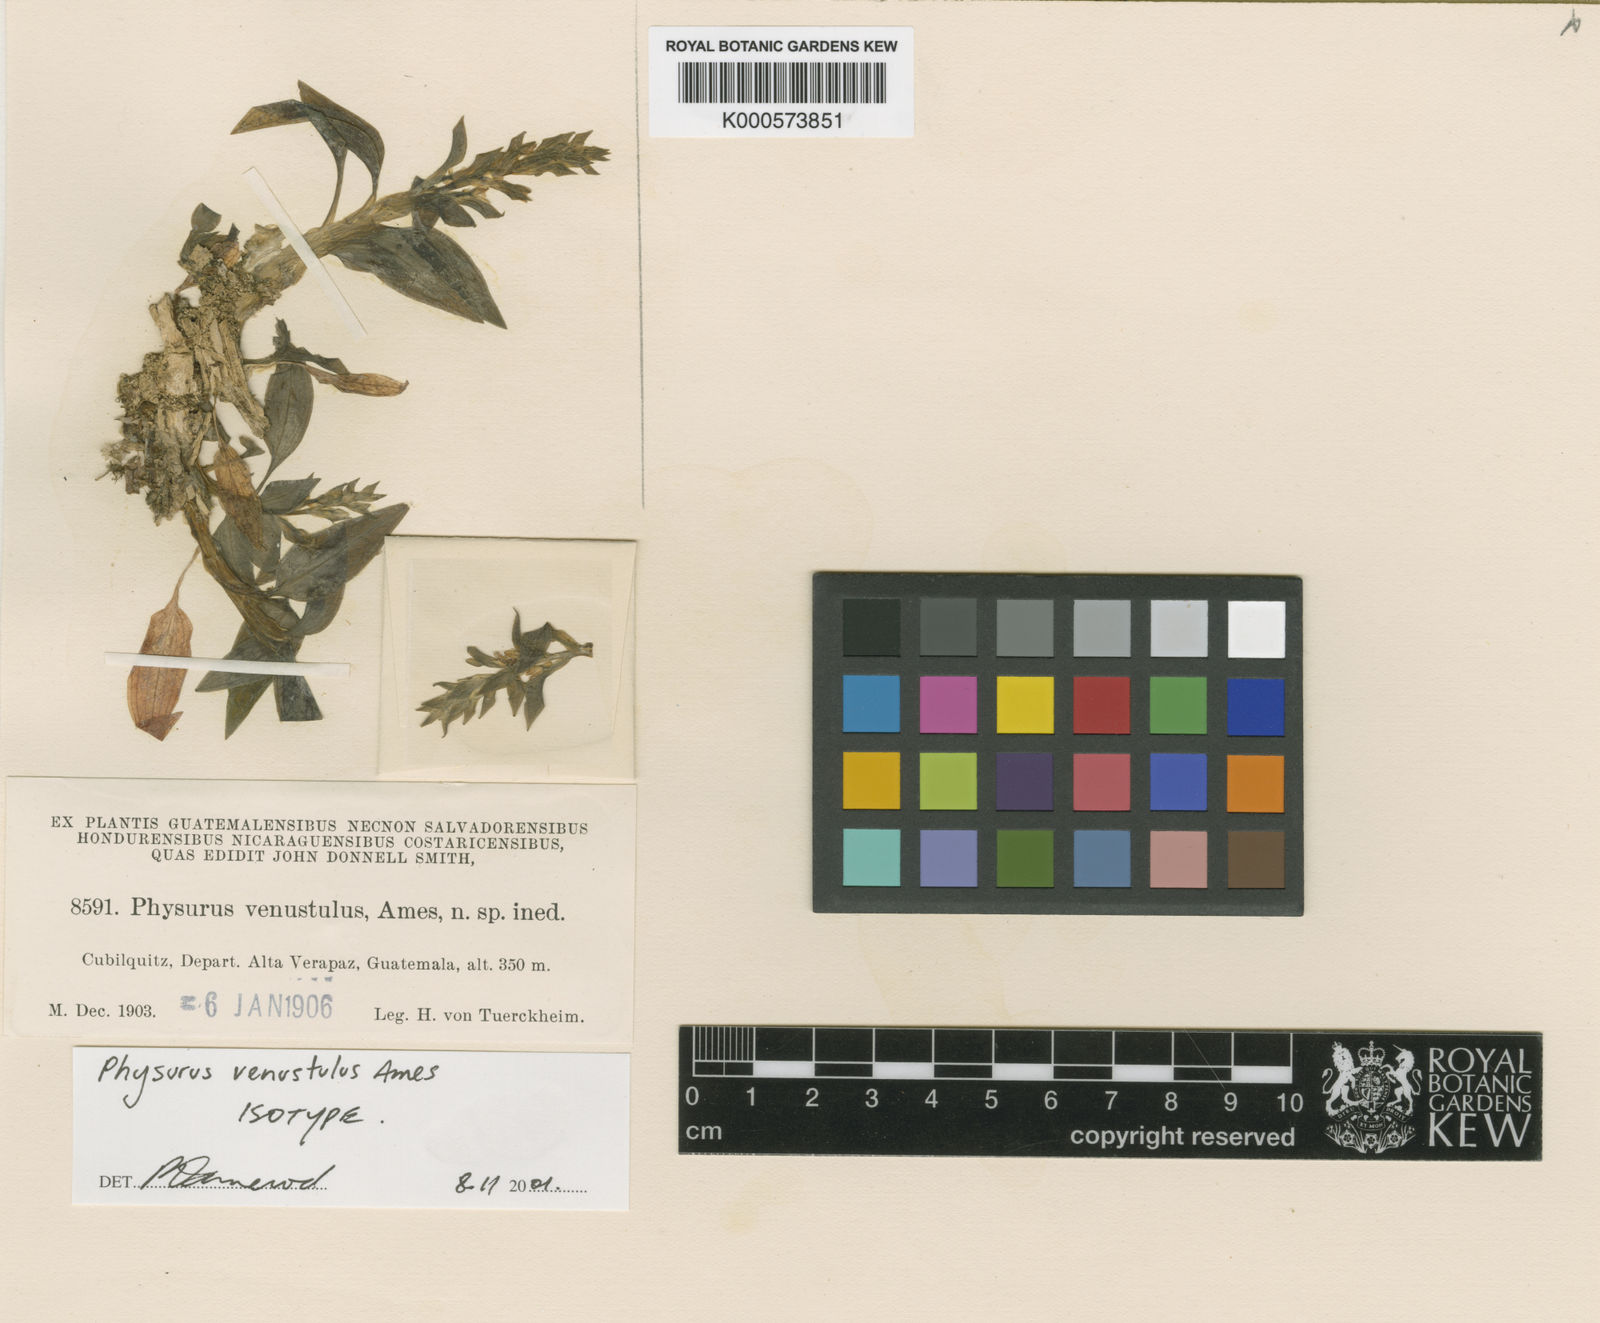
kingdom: Plantae
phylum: Tracheophyta
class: Liliopsida
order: Asparagales
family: Orchidaceae
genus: Aspidogyne
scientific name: Aspidogyne venustula
